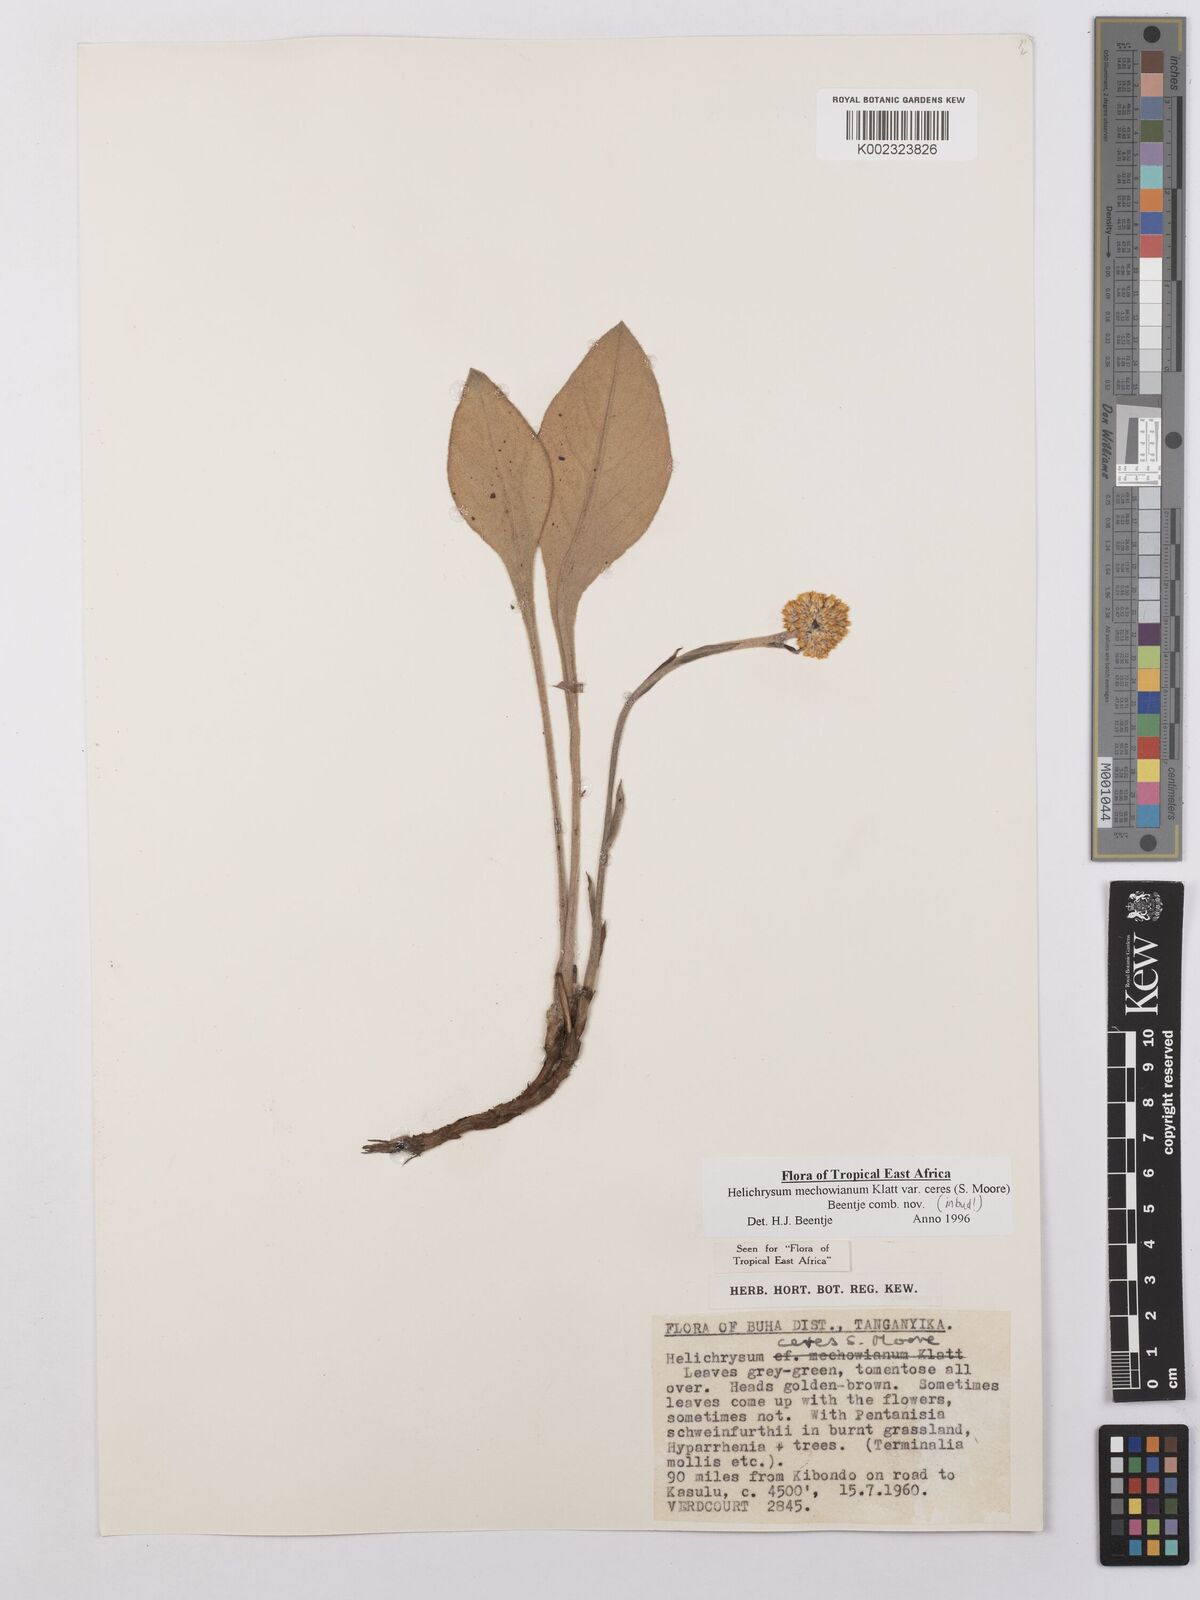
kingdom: Plantae
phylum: Tracheophyta
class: Magnoliopsida
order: Asterales
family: Asteraceae
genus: Helichrysum
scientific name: Helichrysum mechowianum
